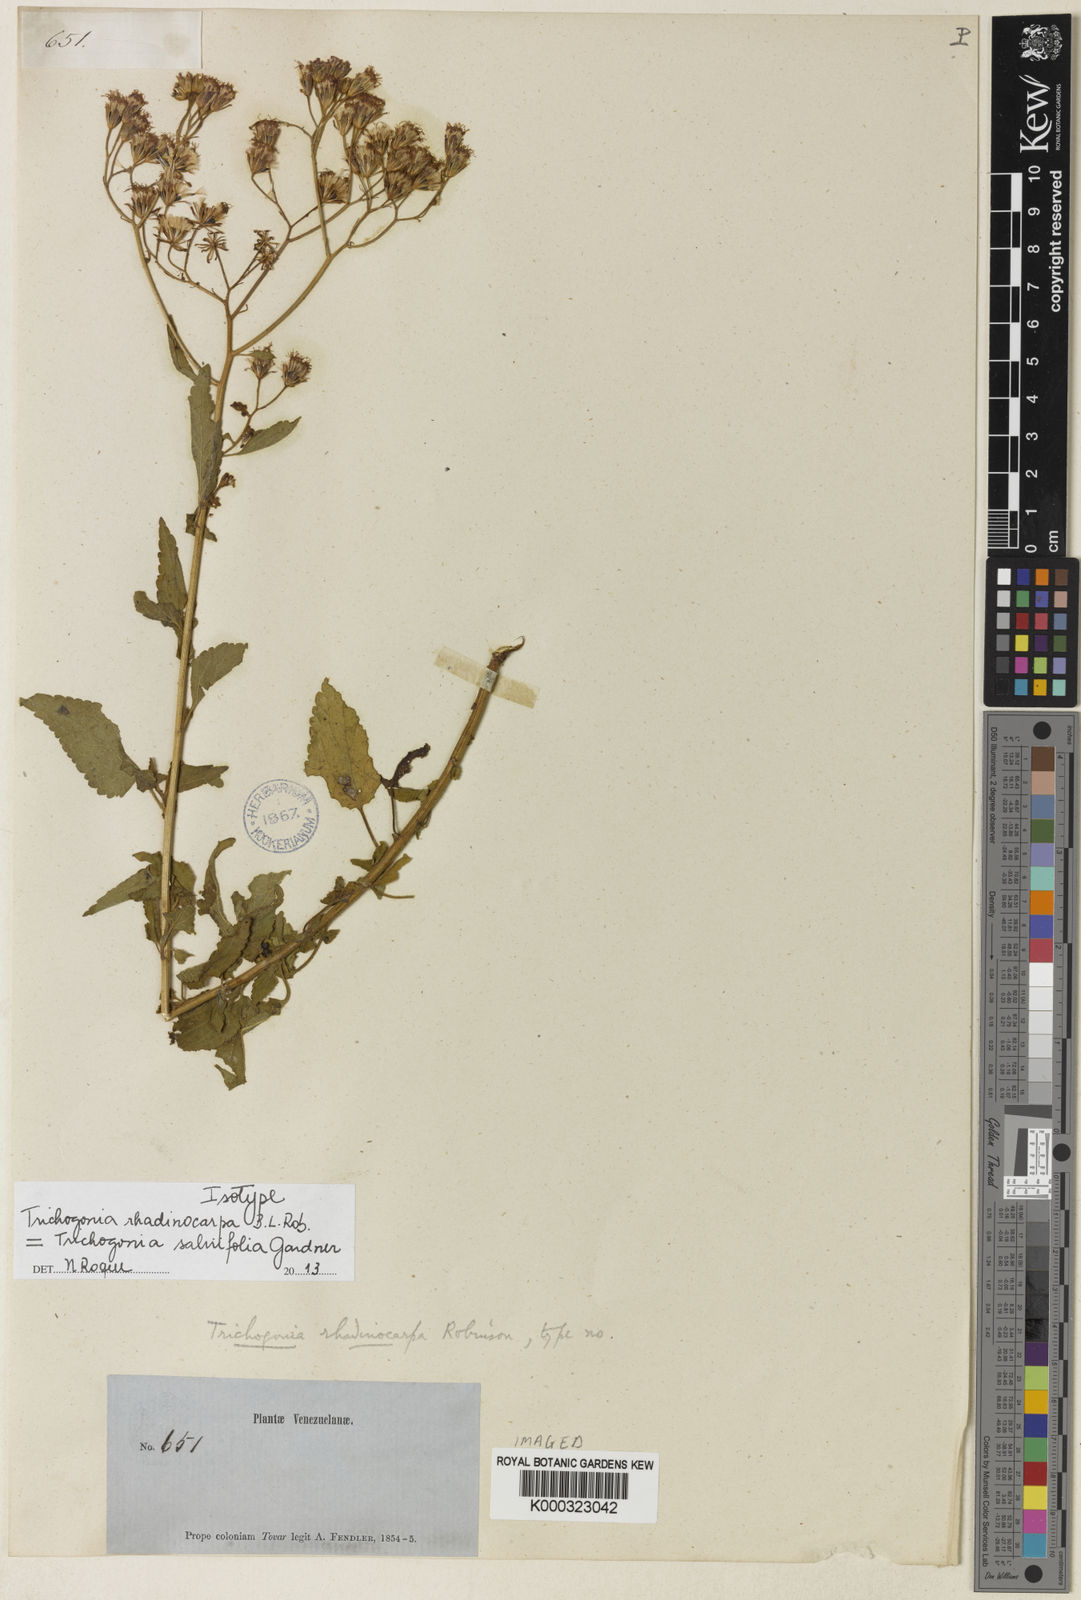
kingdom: Plantae
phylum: Tracheophyta
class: Magnoliopsida
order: Asterales
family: Asteraceae
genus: Trichogonia
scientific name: Trichogonia salviifolia
